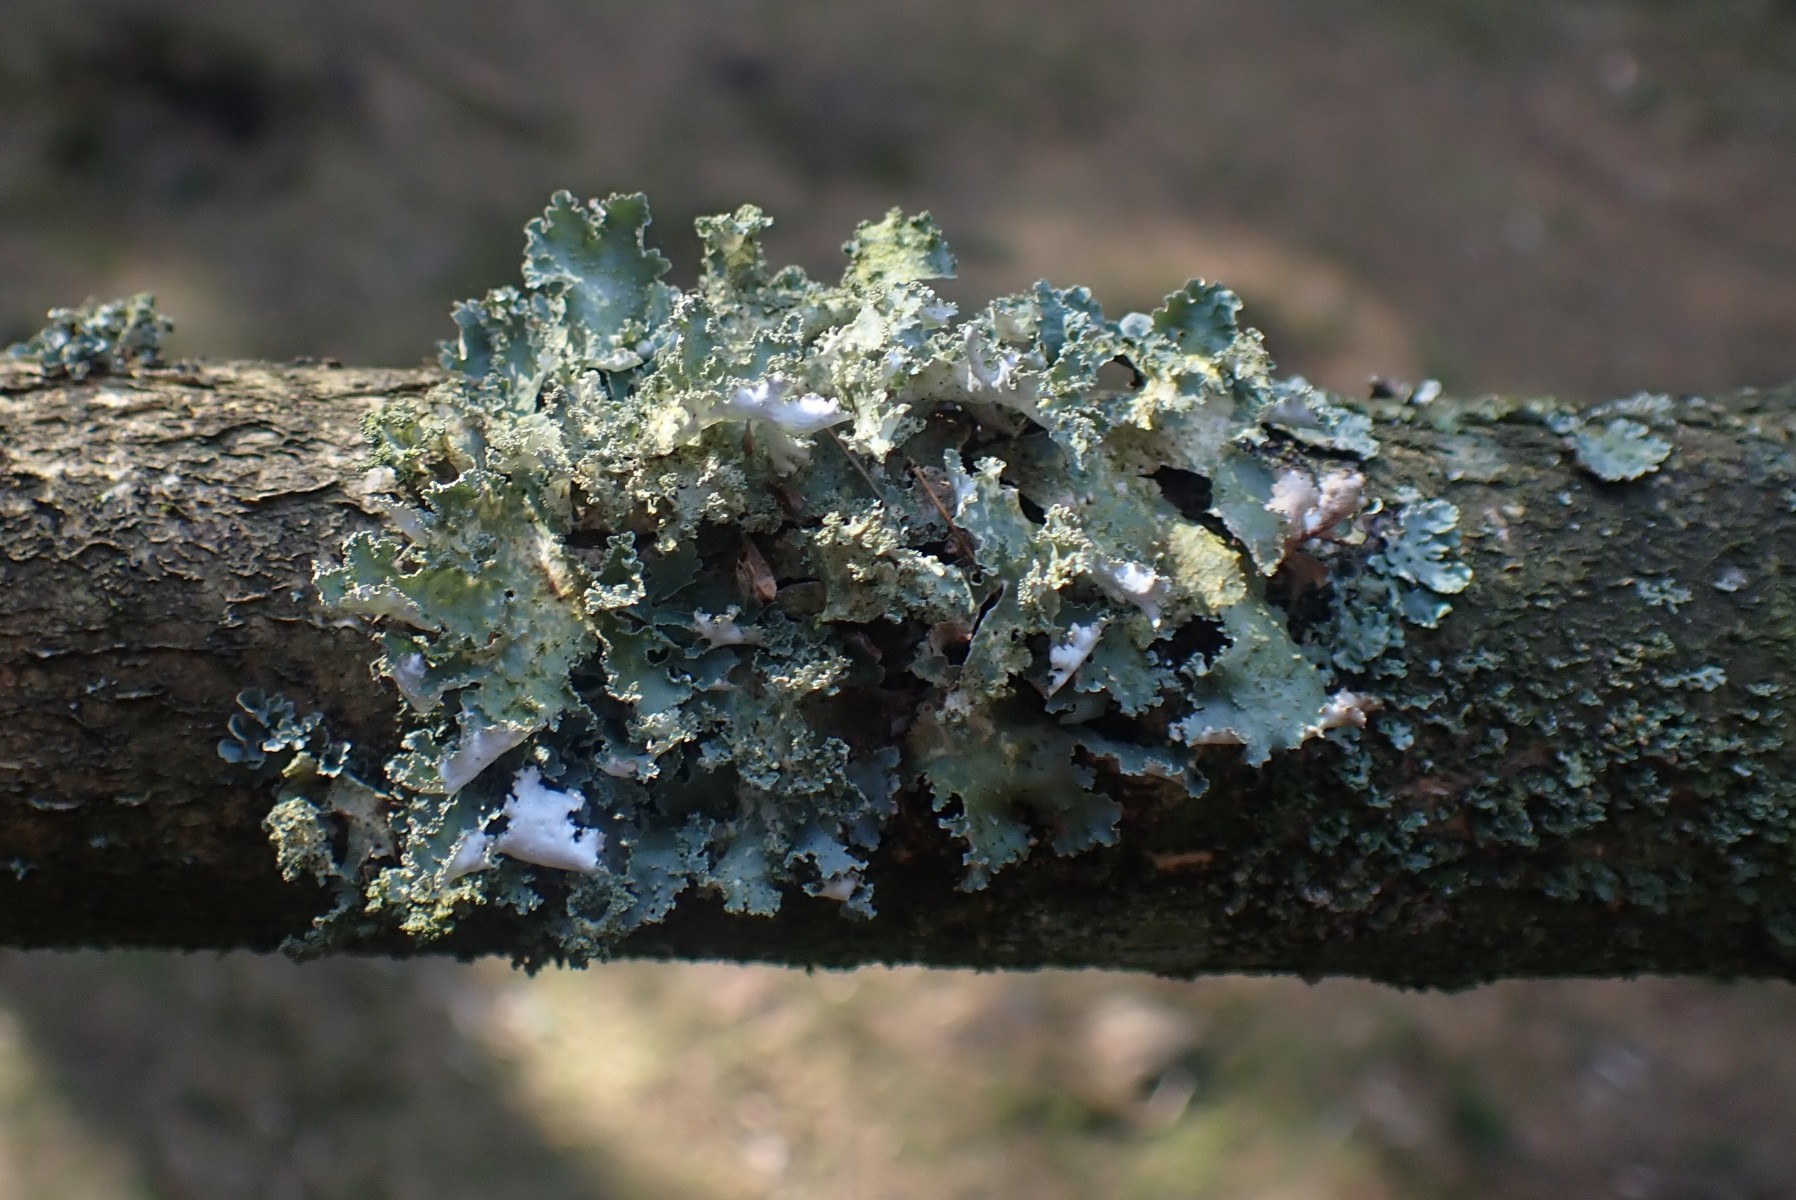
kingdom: Fungi
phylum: Ascomycota
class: Lecanoromycetes
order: Lecanorales
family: Parmeliaceae
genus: Platismatia
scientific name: Platismatia glauca
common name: blågrå papirlav
